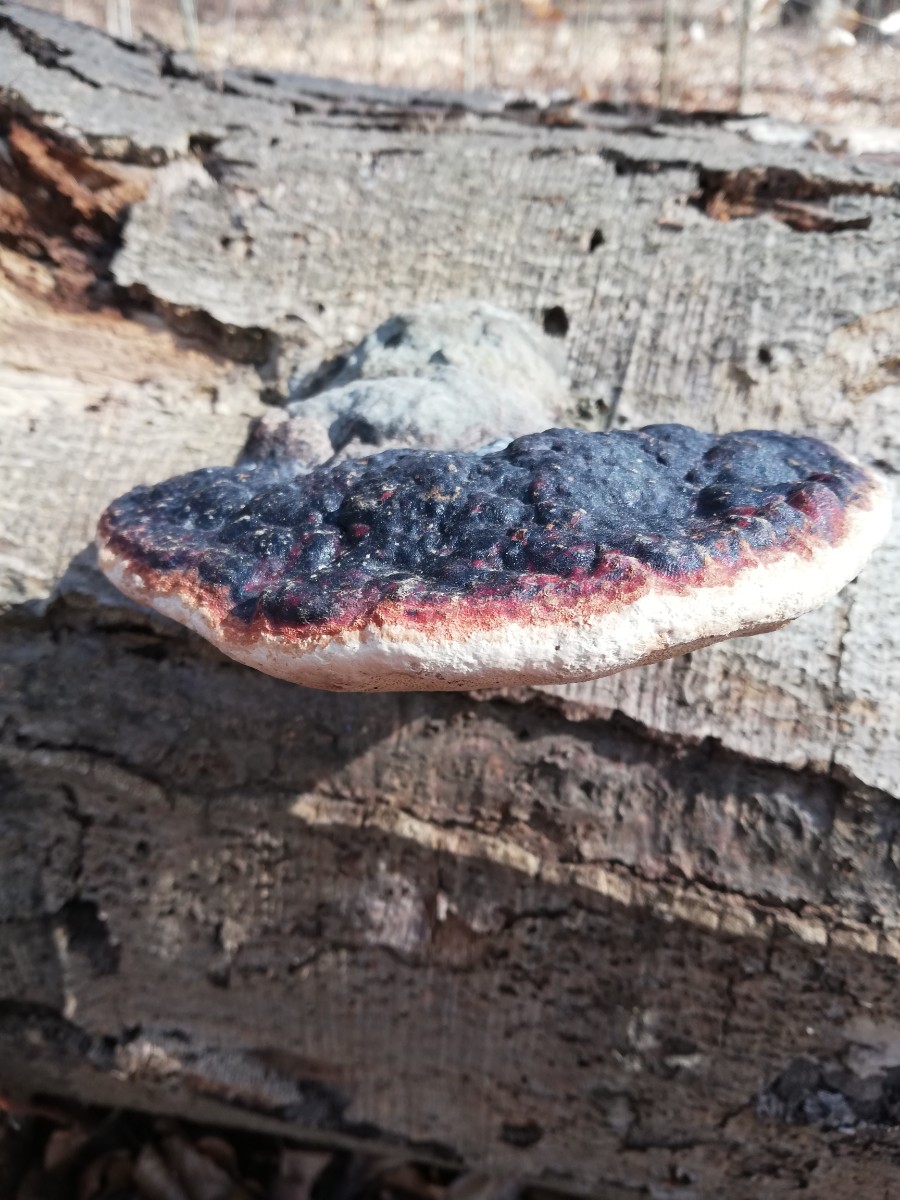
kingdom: Fungi
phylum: Basidiomycota
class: Agaricomycetes
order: Polyporales
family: Fomitopsidaceae
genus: Fomitopsis
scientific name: Fomitopsis pinicola
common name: randbæltet hovporesvamp
